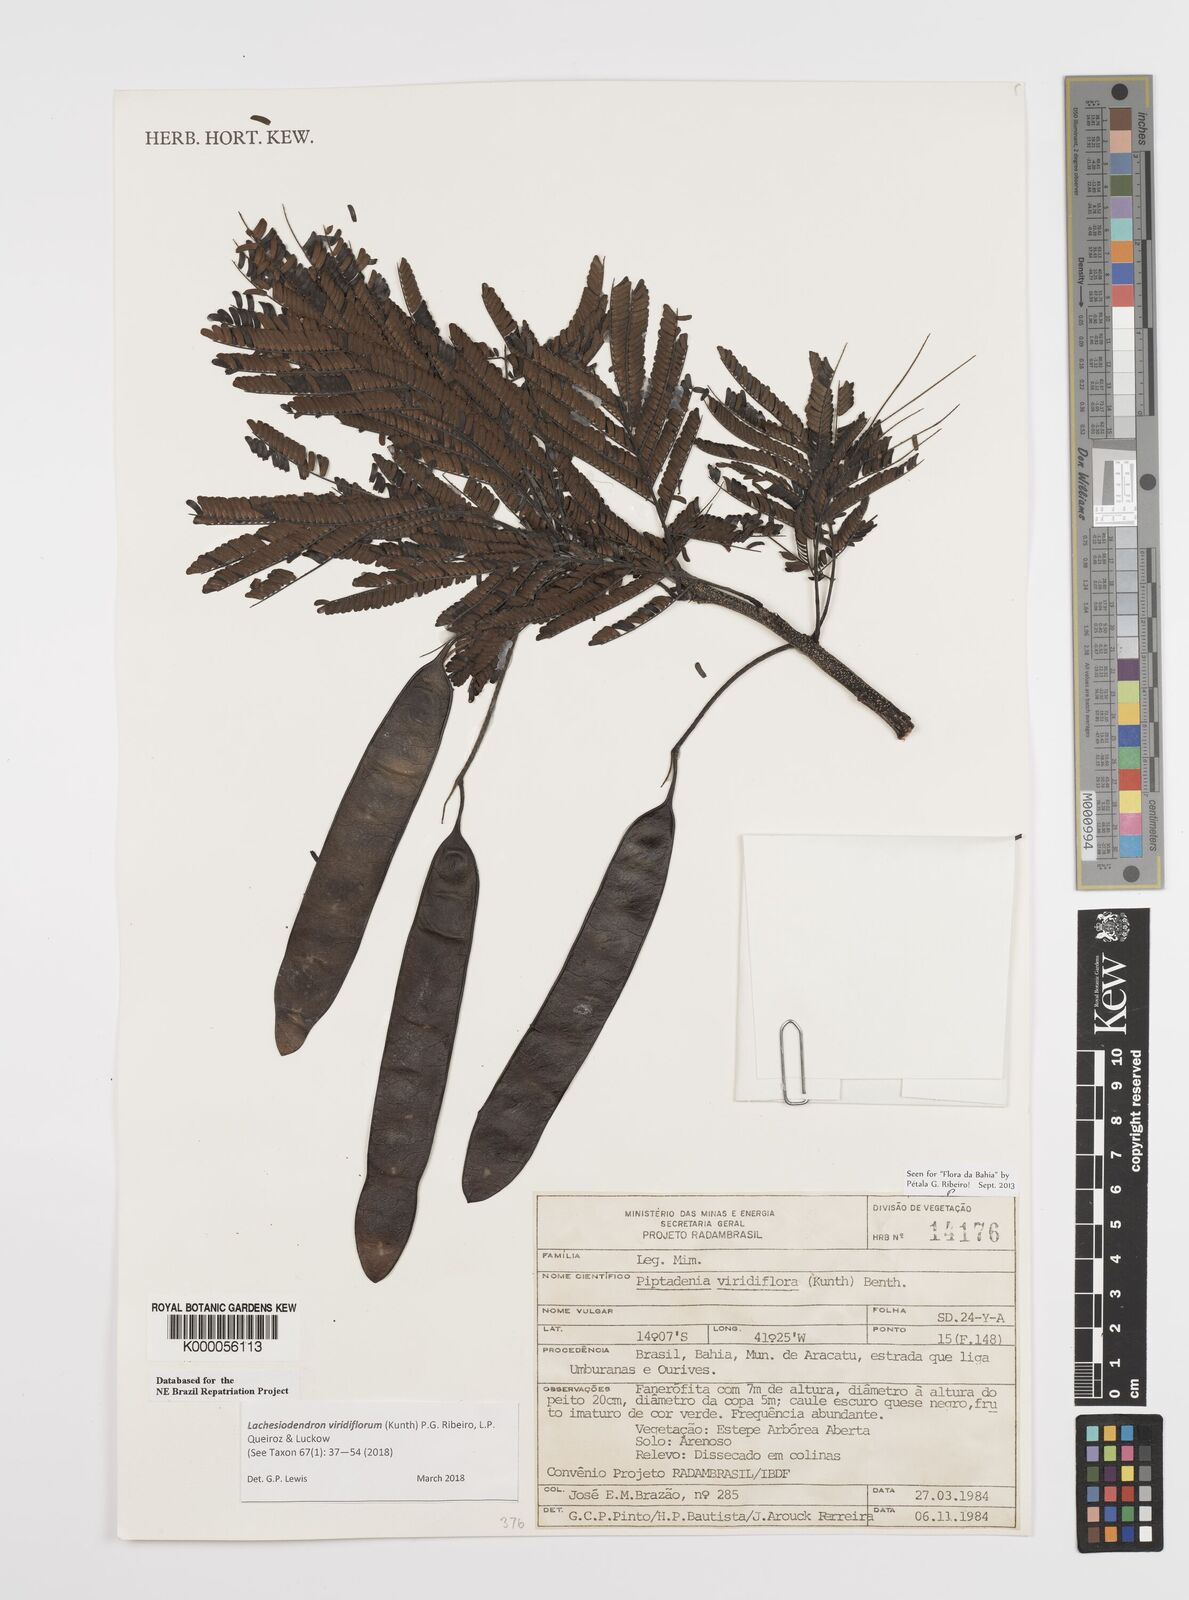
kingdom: Plantae
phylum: Tracheophyta
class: Magnoliopsida
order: Fabales
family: Fabaceae
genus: Lachesiodendron
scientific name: Lachesiodendron viridiflorum
